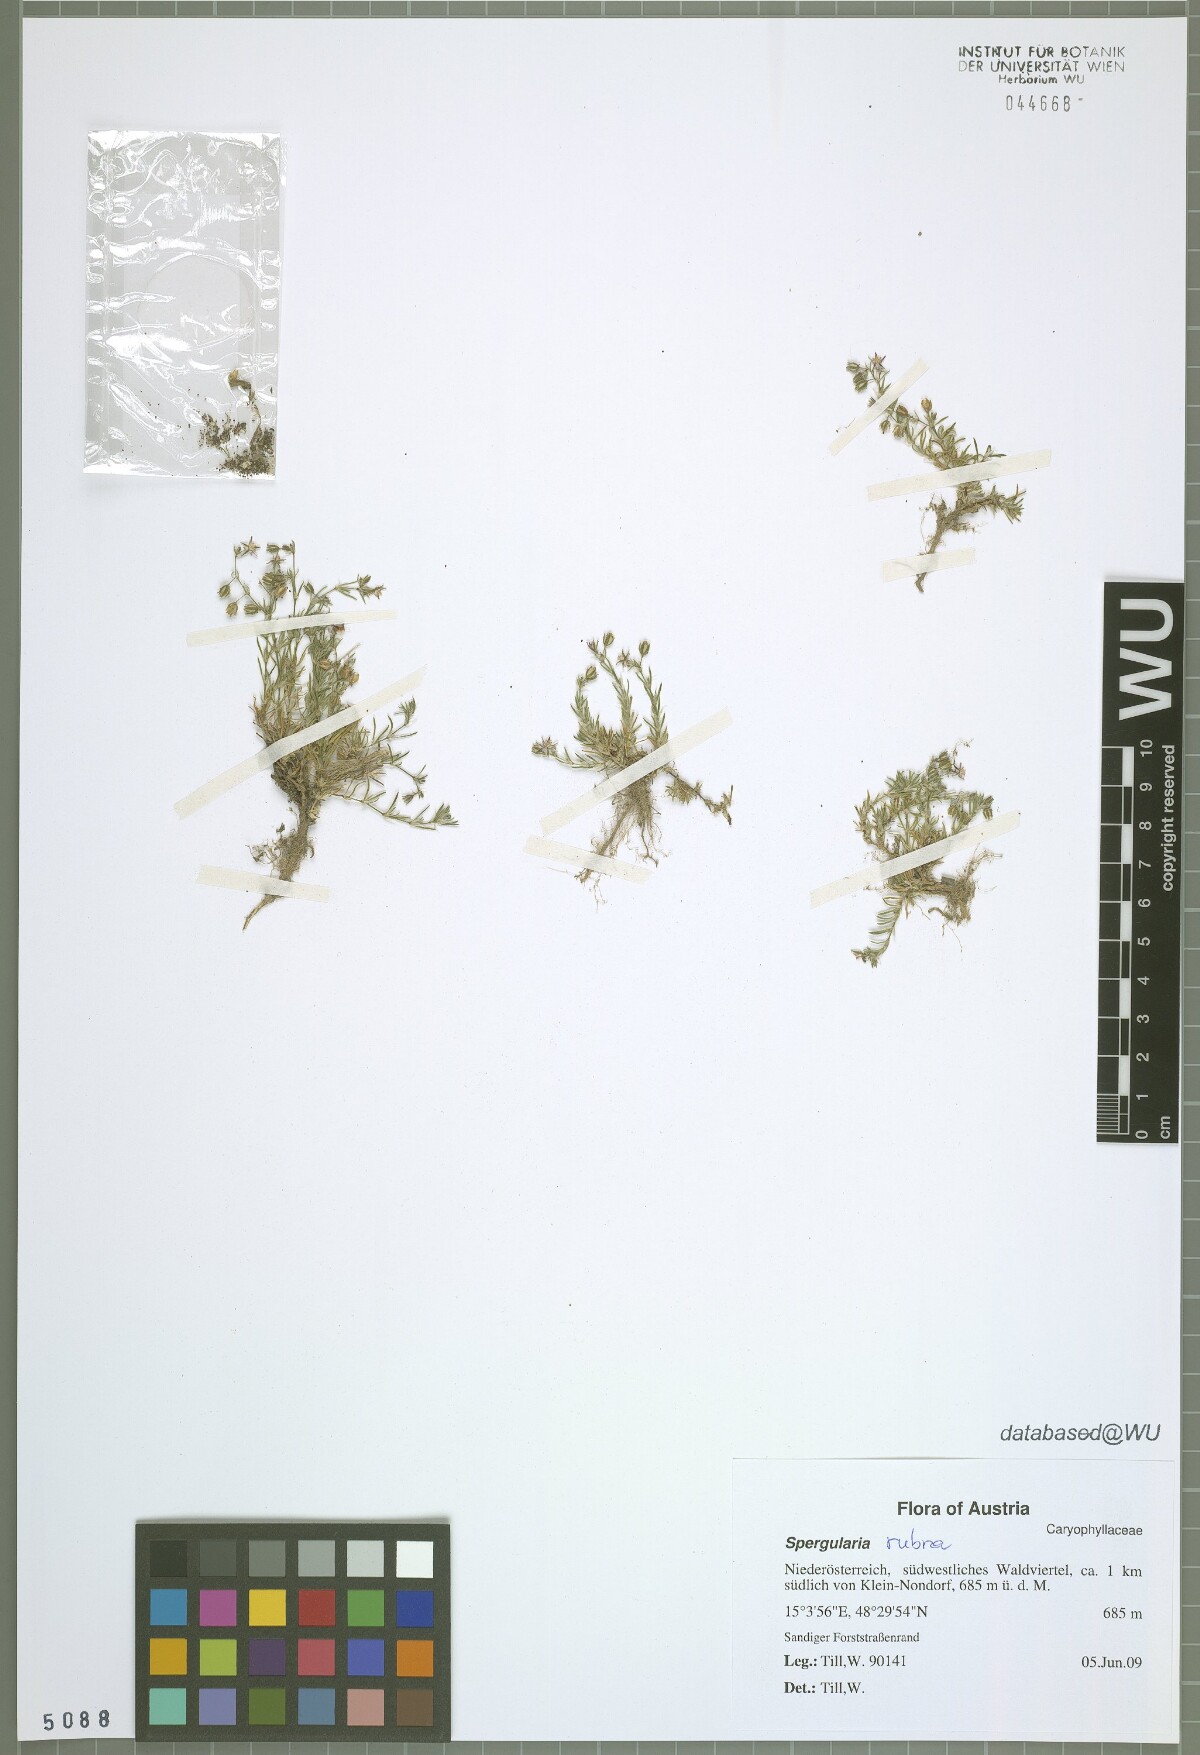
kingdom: Plantae
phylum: Tracheophyta
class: Magnoliopsida
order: Caryophyllales
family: Caryophyllaceae
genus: Spergularia
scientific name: Spergularia rubra
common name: Red sand-spurrey
